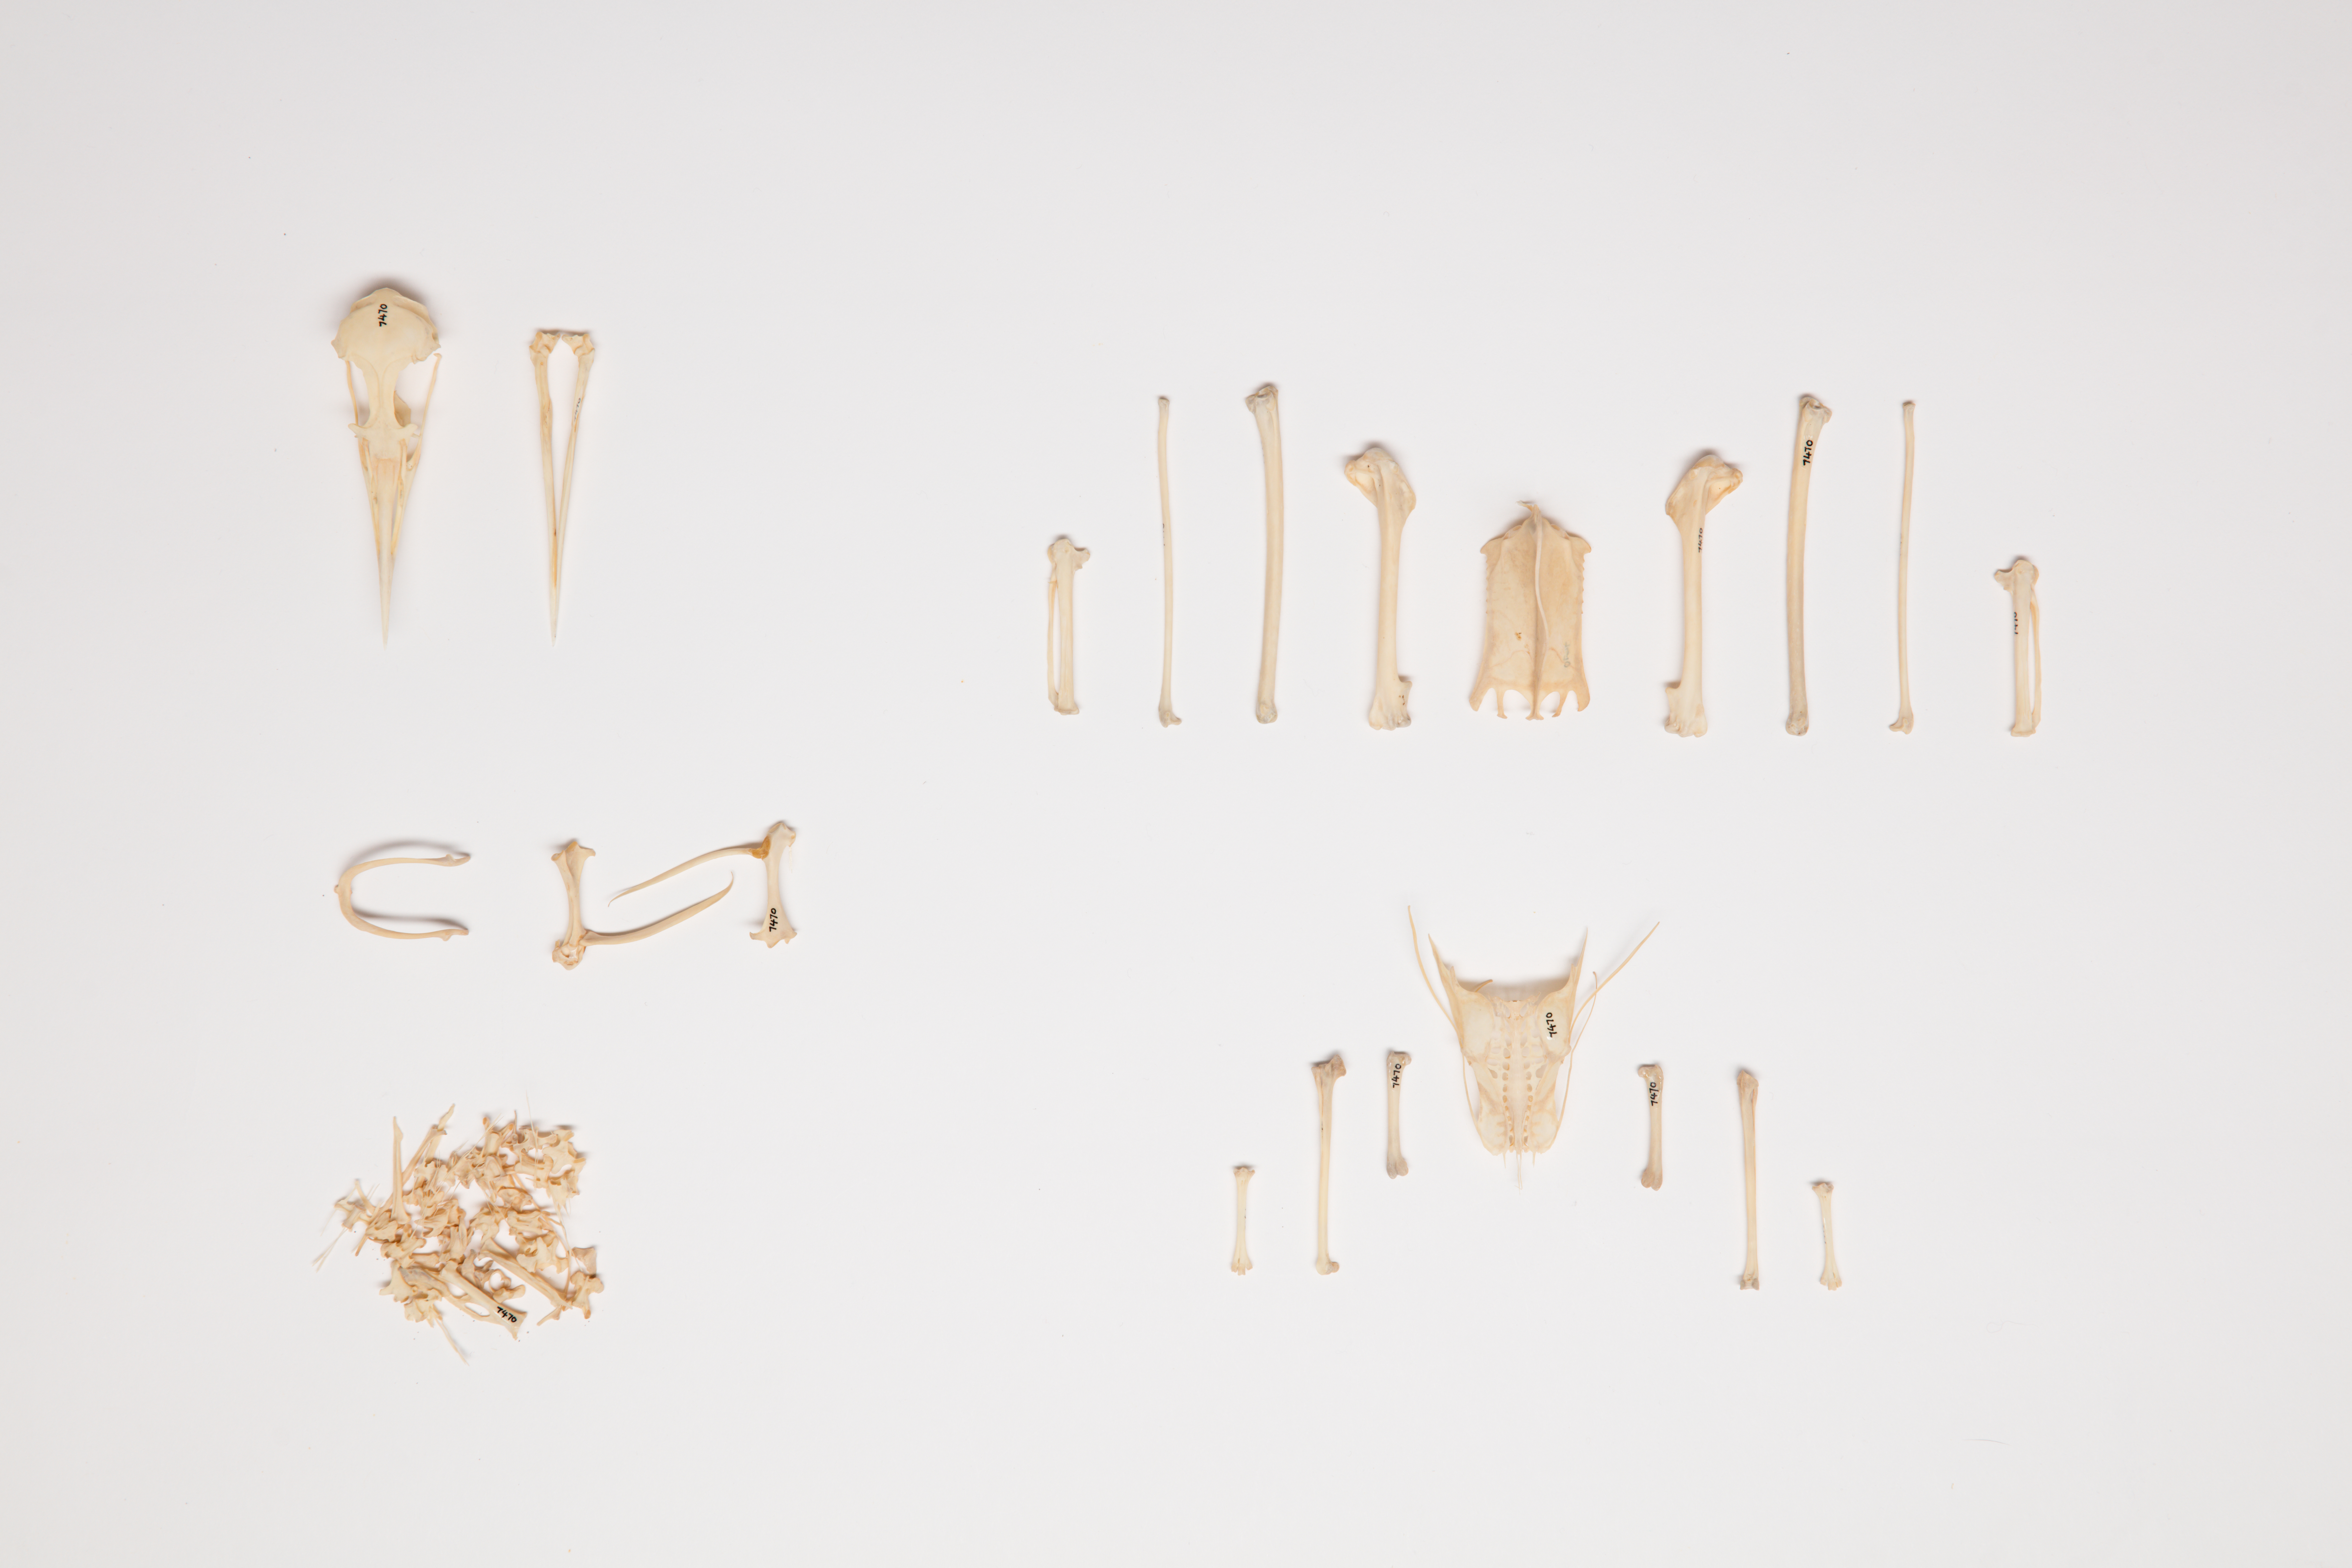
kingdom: Animalia
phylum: Chordata
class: Aves
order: Charadriiformes
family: Laridae
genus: Onychoprion
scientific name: Onychoprion fuscatus
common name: Sooty tern
